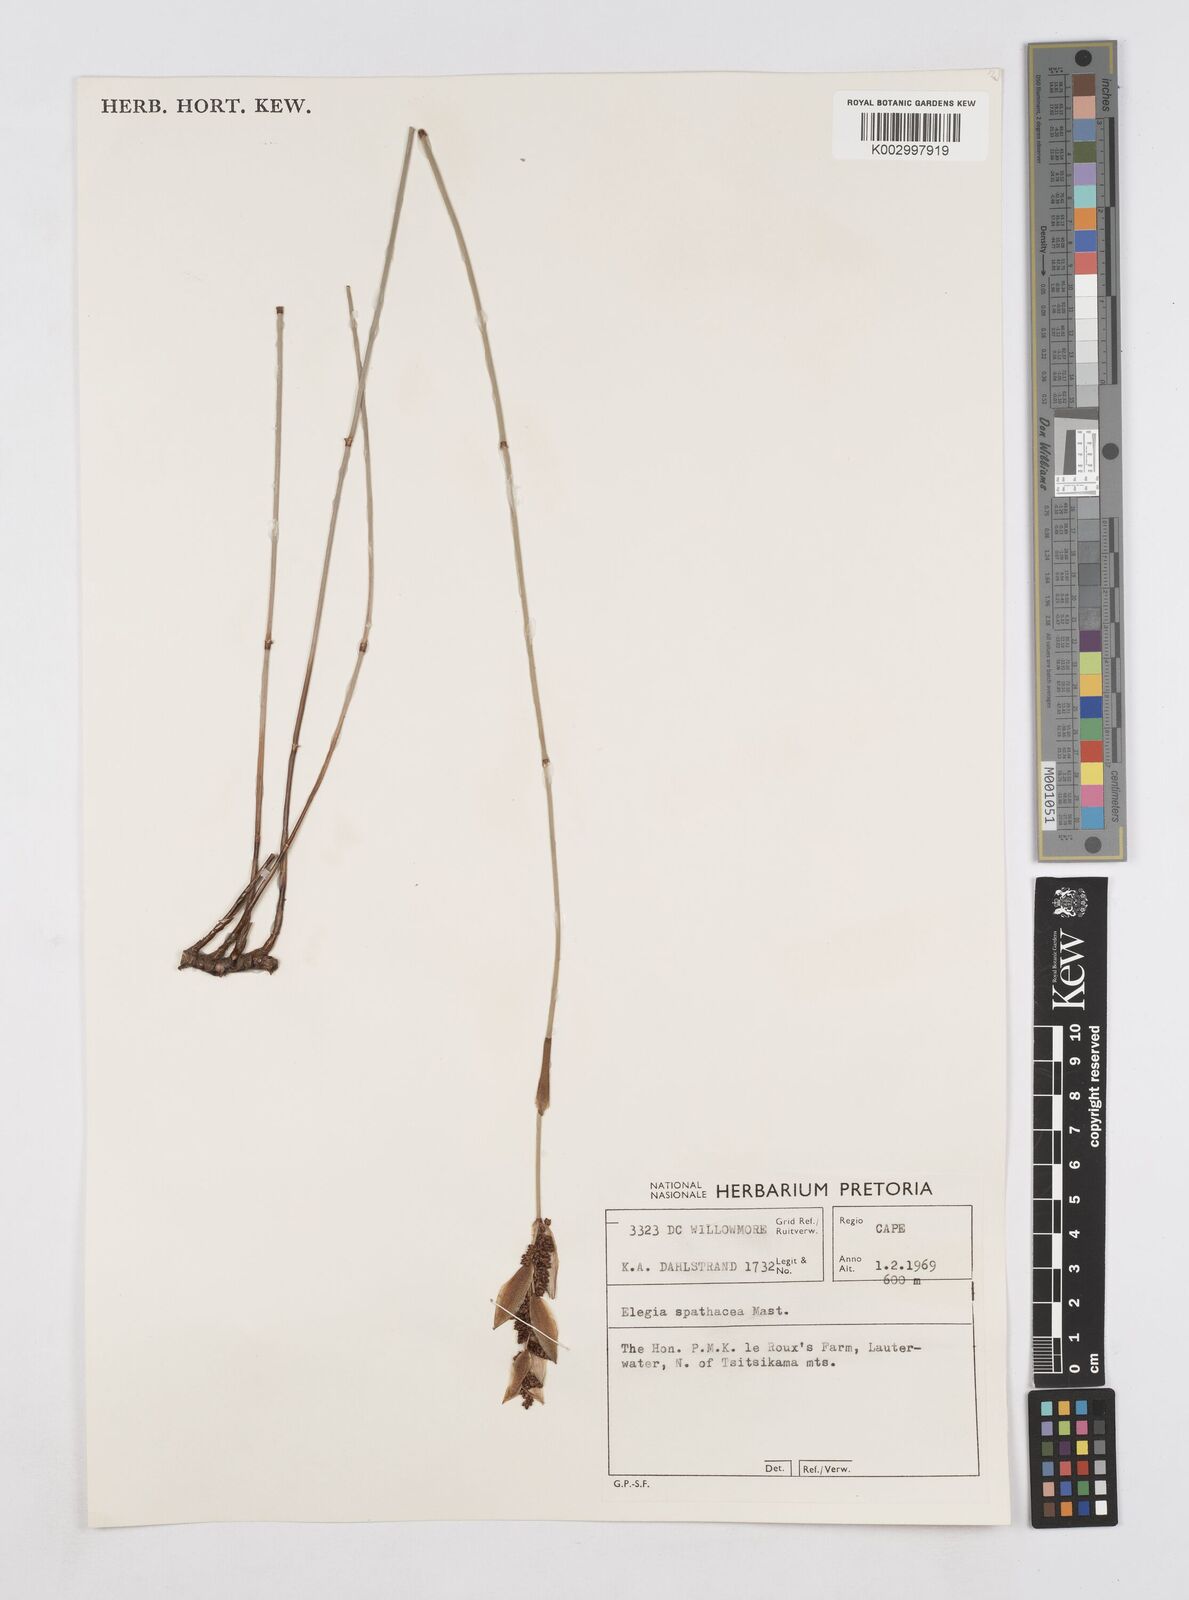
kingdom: Plantae
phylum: Tracheophyta
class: Liliopsida
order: Poales
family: Restionaceae
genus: Elegia
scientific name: Elegia spathacea
